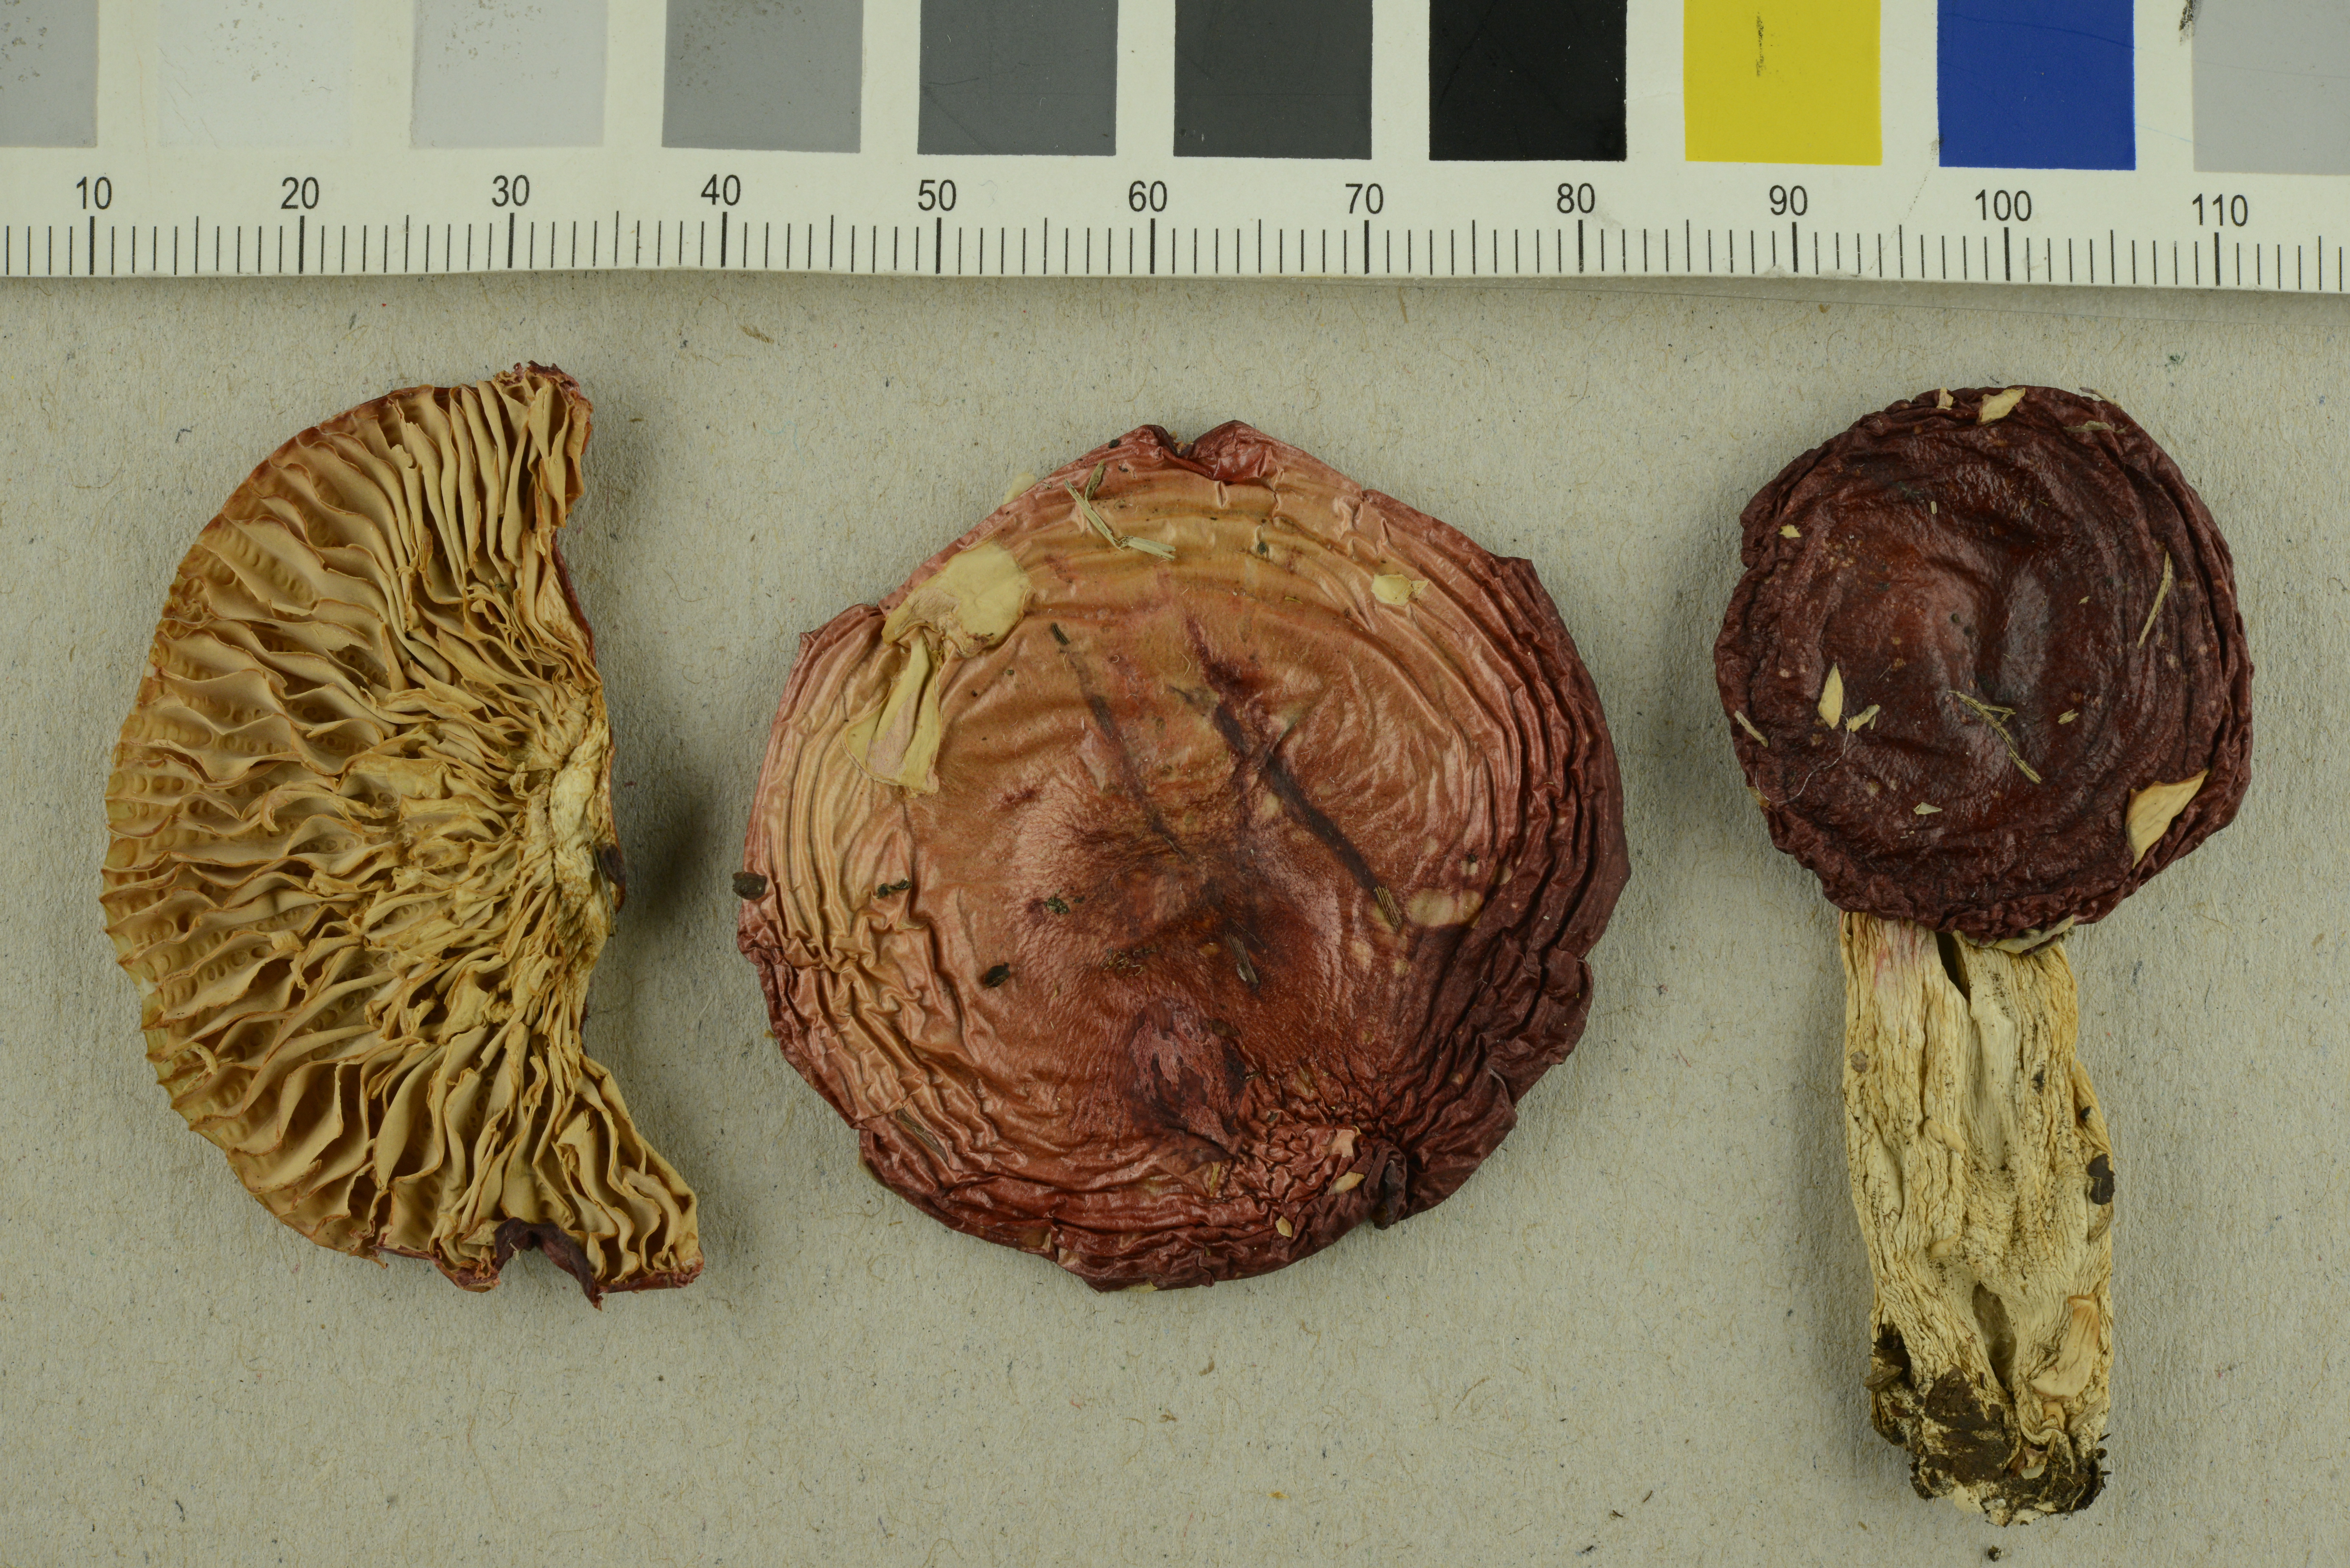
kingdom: Fungi
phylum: Basidiomycota
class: Agaricomycetes
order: Russulales
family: Russulaceae
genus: Russula
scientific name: Russula renidens
